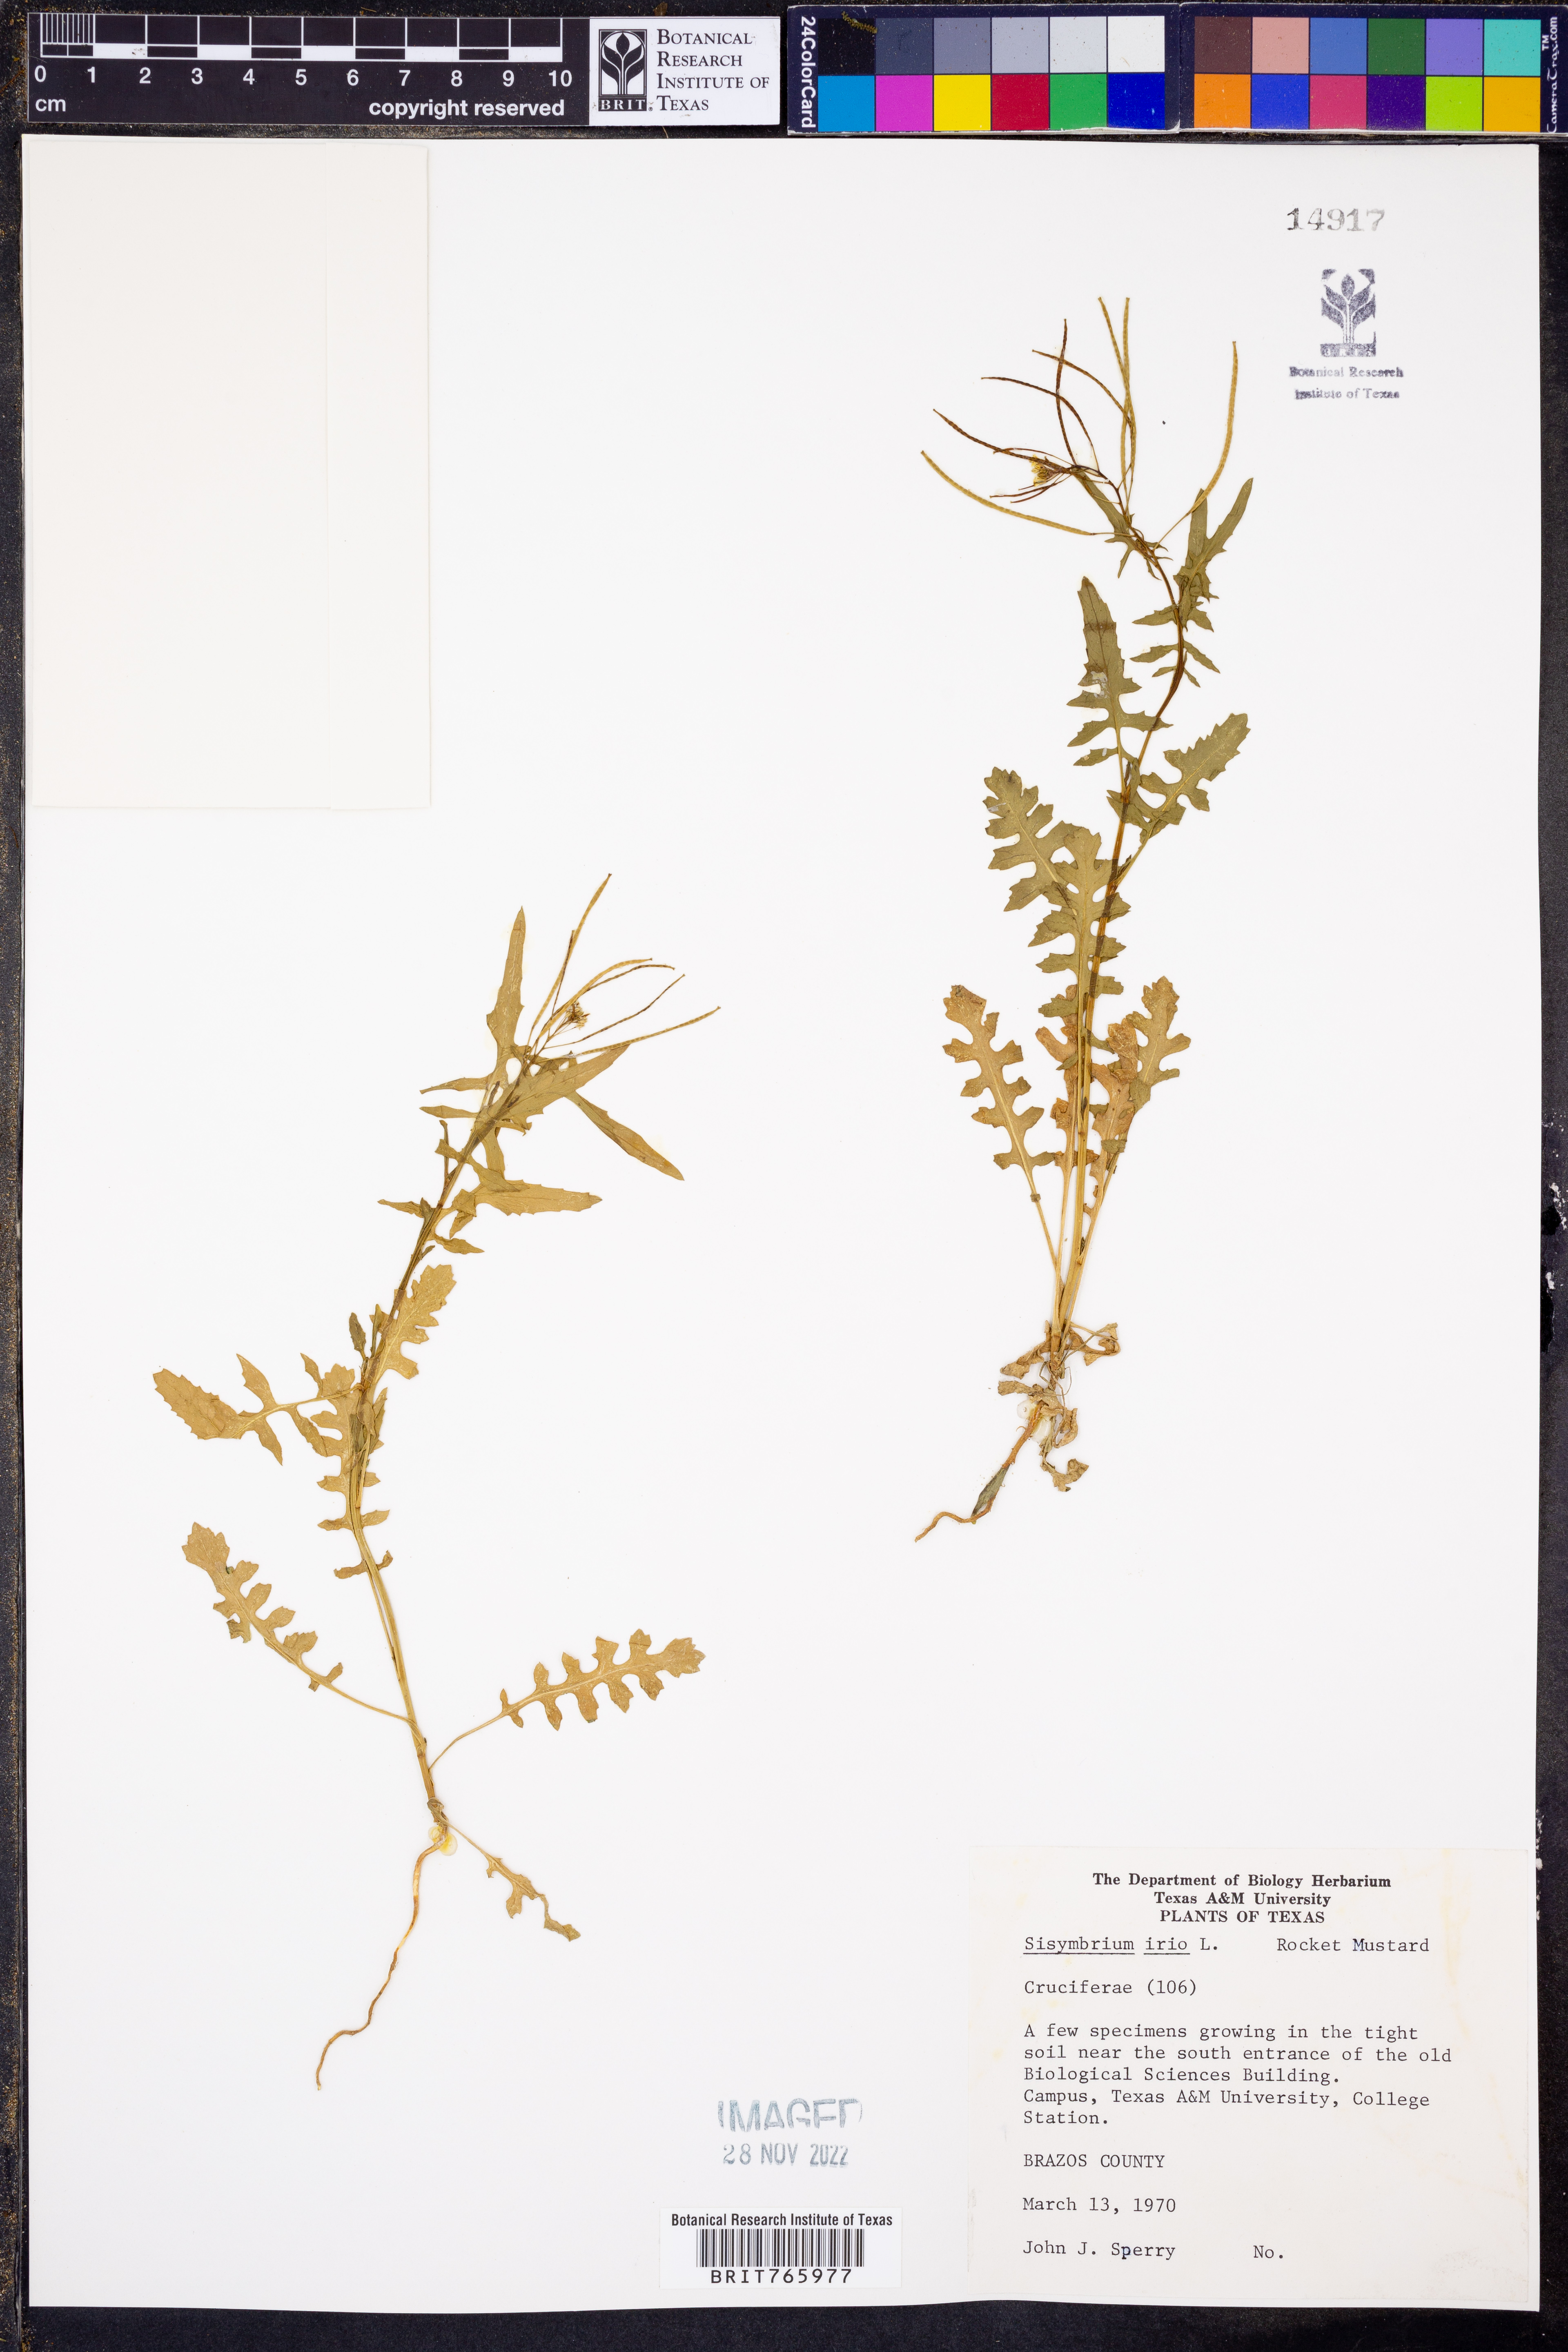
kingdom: Plantae
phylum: Tracheophyta
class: Magnoliopsida
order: Brassicales
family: Brassicaceae
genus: Sisymbrium
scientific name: Sisymbrium irio
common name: London rocket
